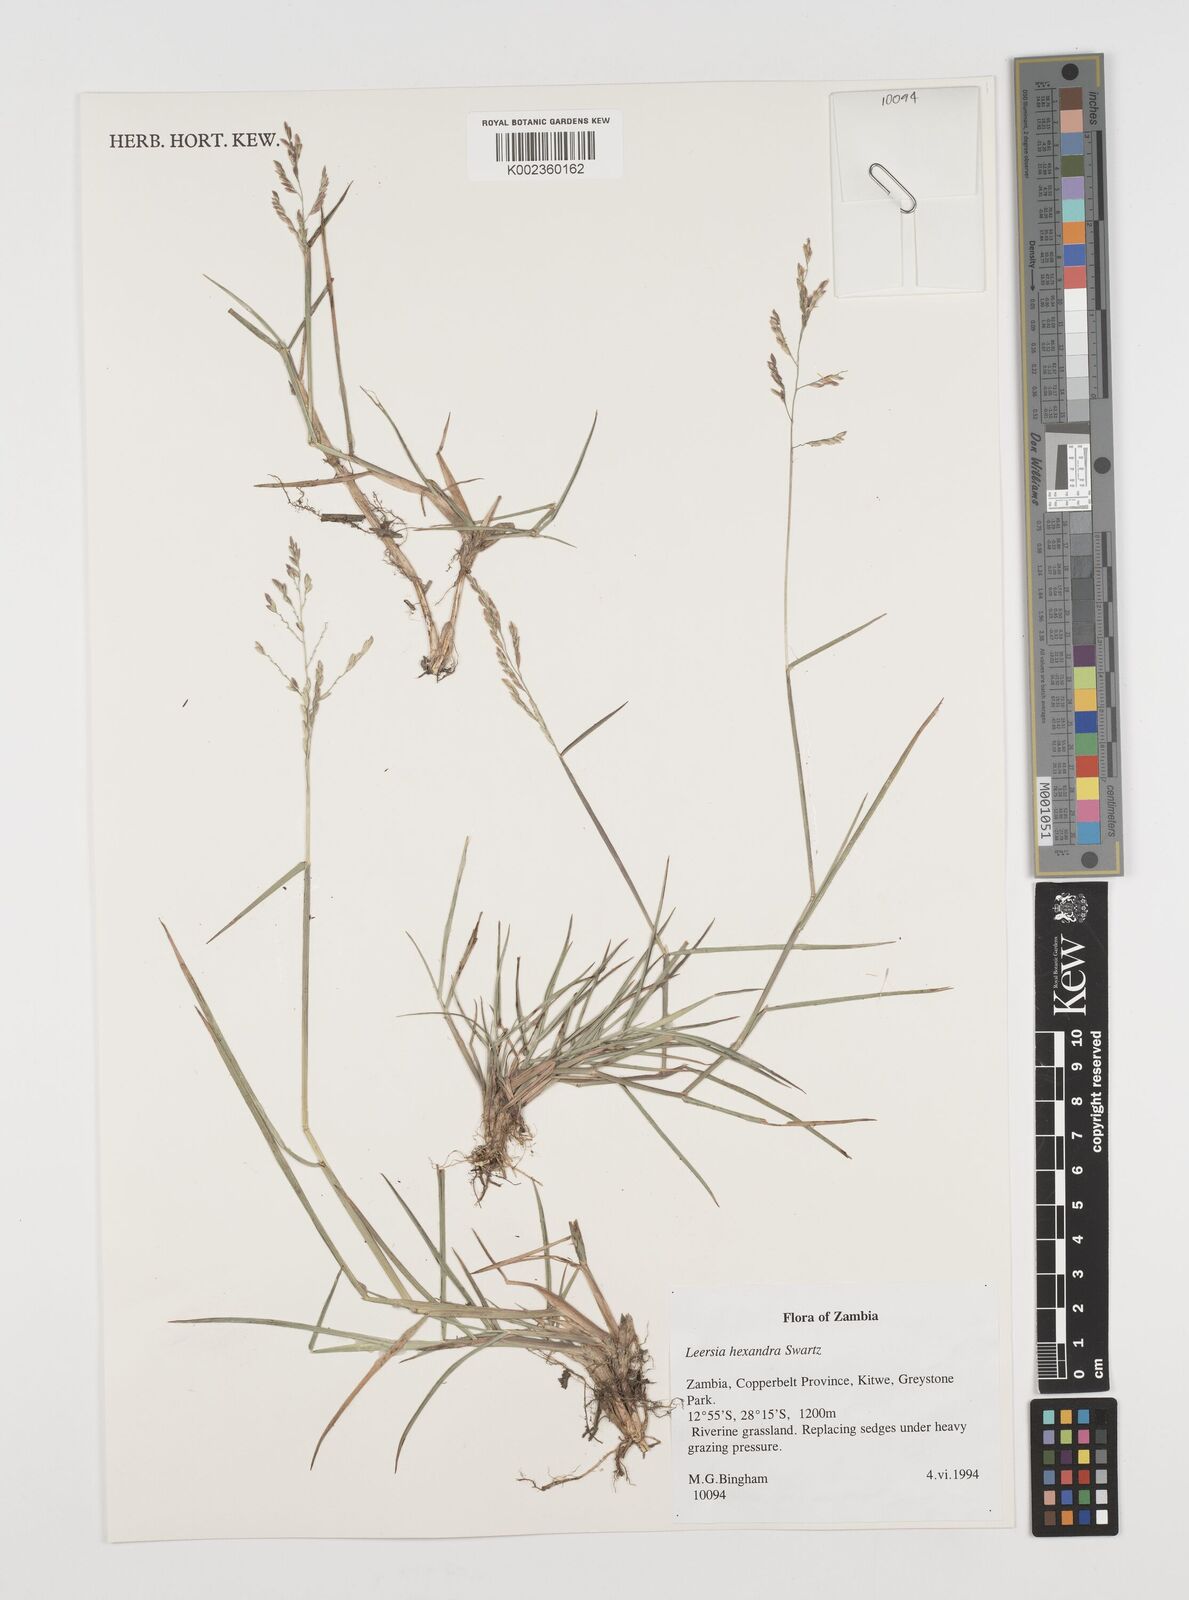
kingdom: Plantae
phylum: Tracheophyta
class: Liliopsida
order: Poales
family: Poaceae
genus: Leersia
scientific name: Leersia hexandra
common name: Southern cut grass
